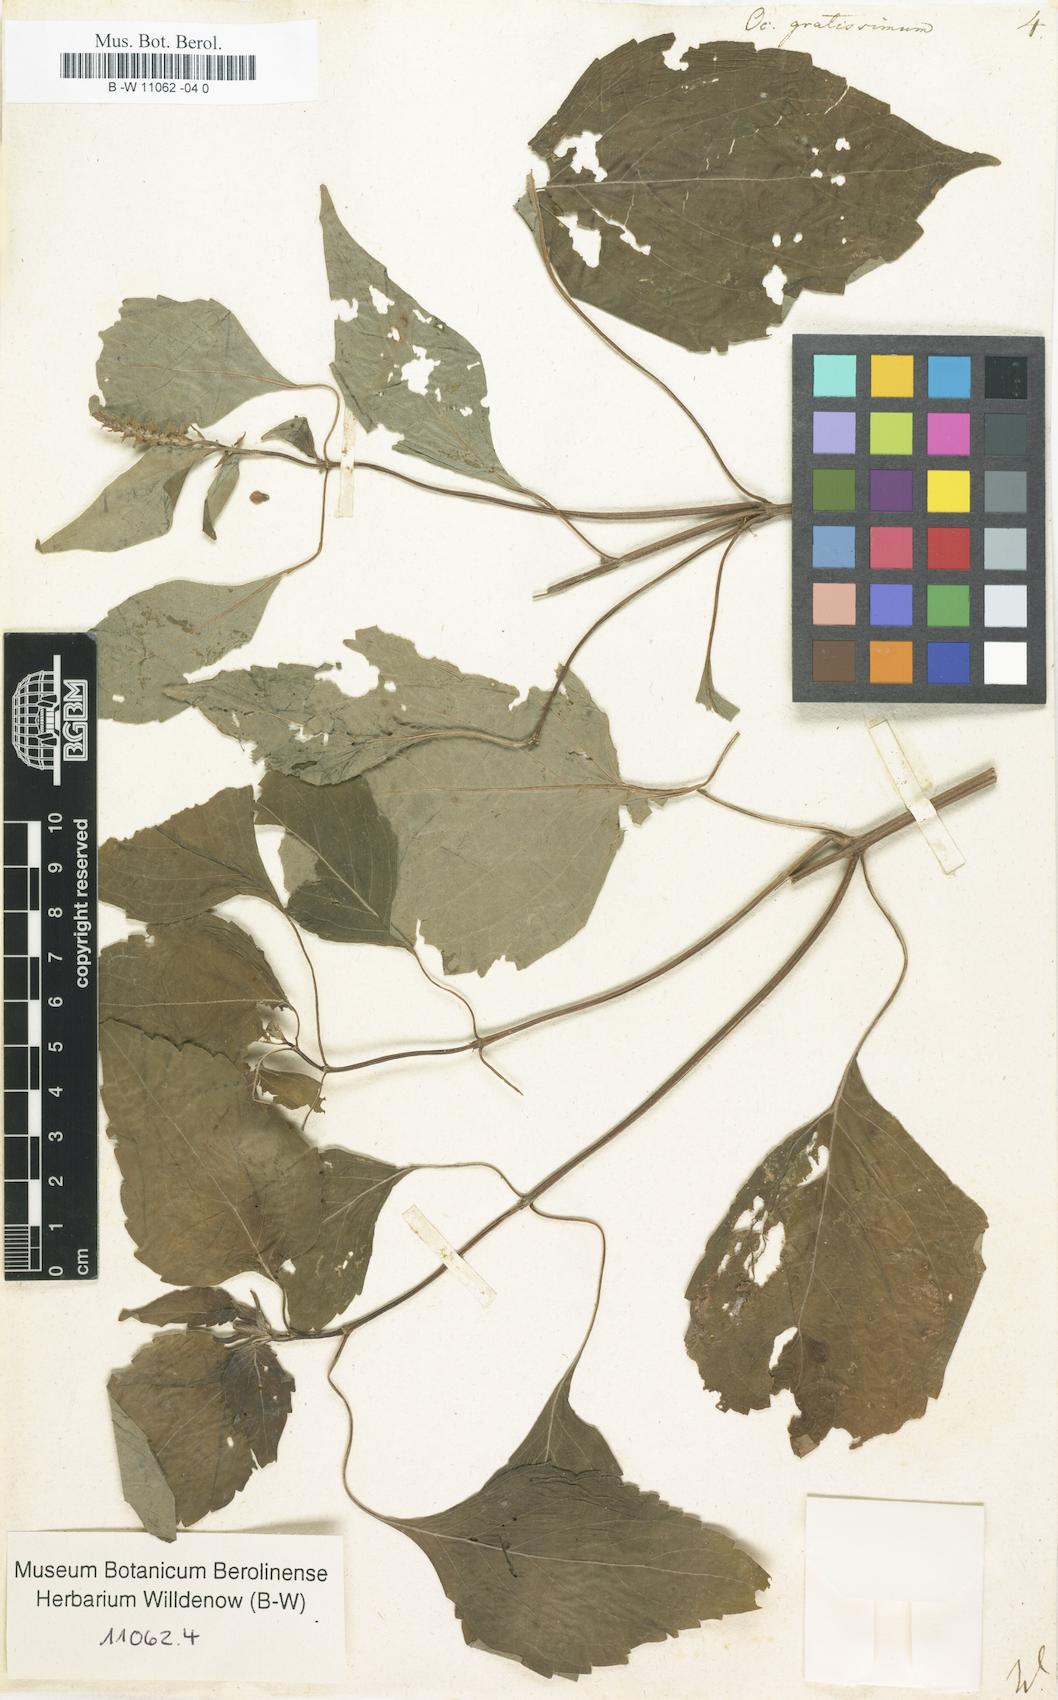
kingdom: Plantae
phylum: Tracheophyta
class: Magnoliopsida
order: Lamiales
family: Lamiaceae
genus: Ocimum
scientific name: Ocimum gratissimum
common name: African basil
